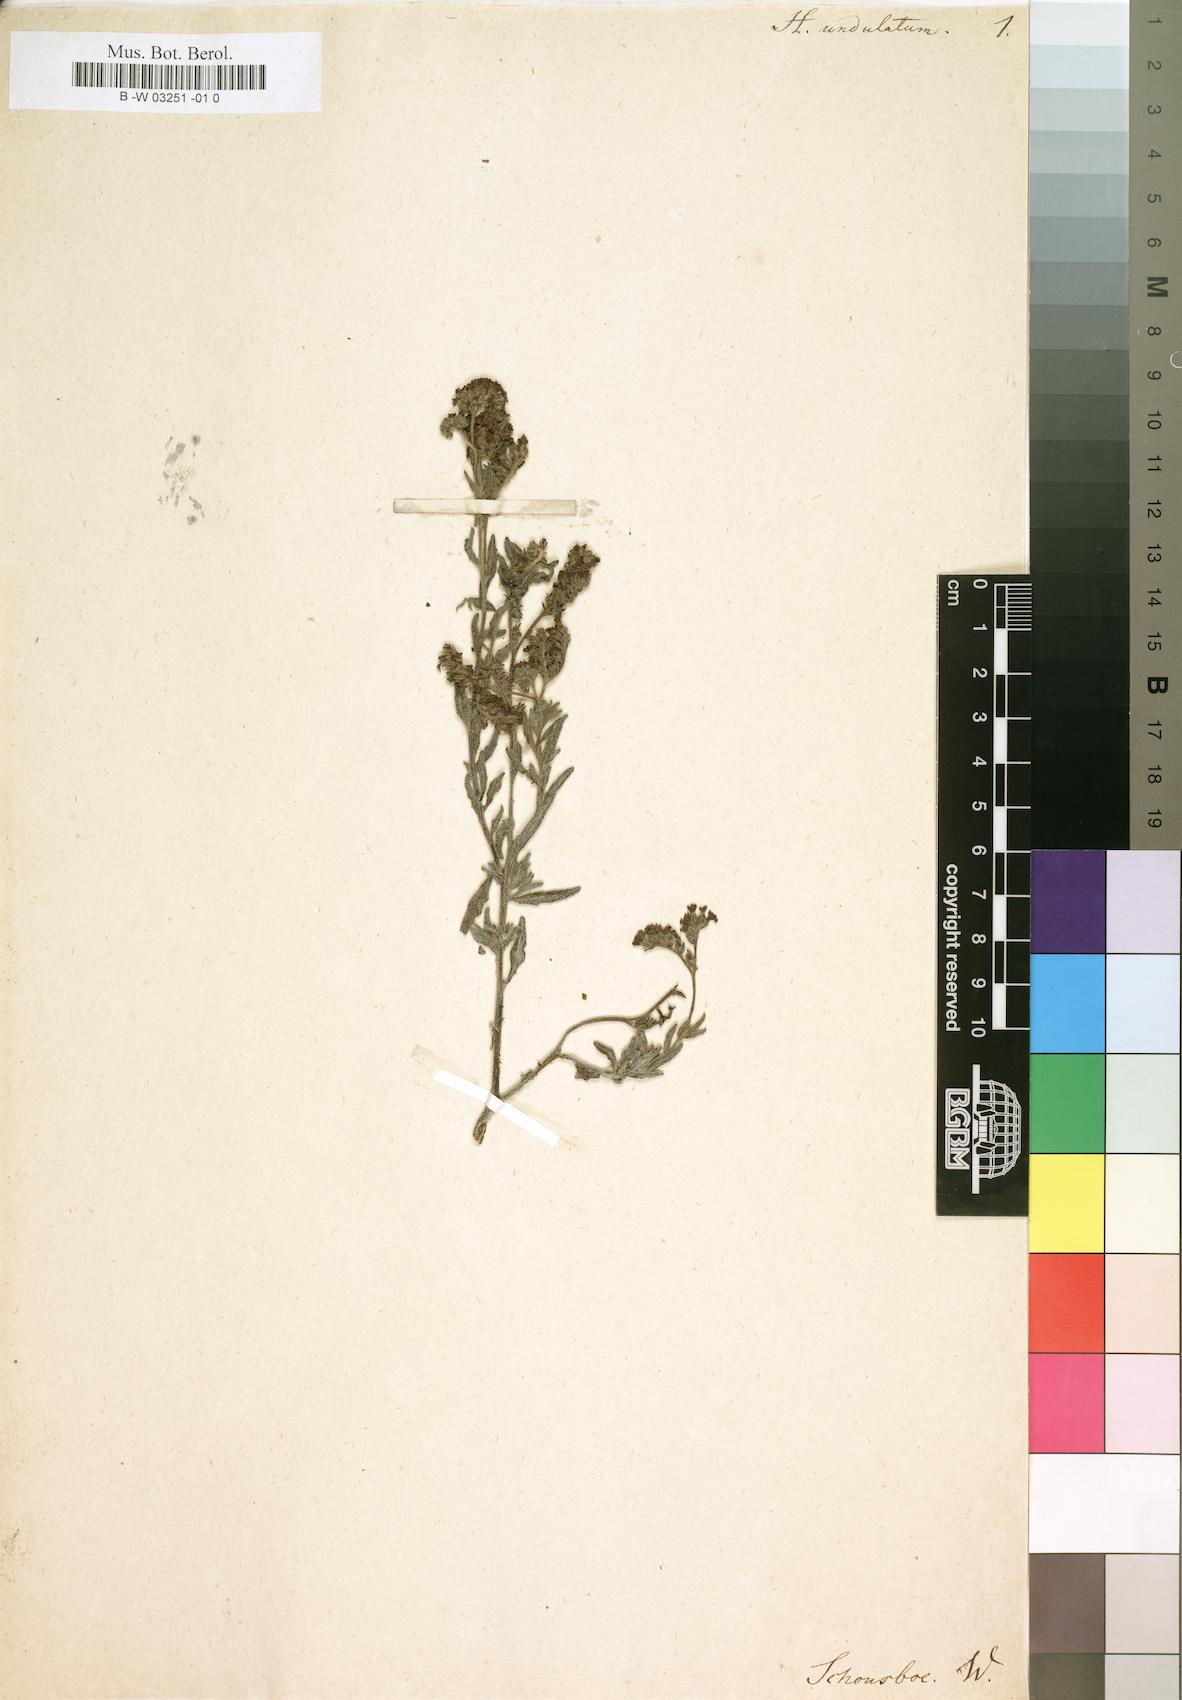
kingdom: Plantae
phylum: Tracheophyta
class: Magnoliopsida
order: Boraginales
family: Heliotropiaceae
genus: Heliotropium
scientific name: Heliotropium bacciferum
